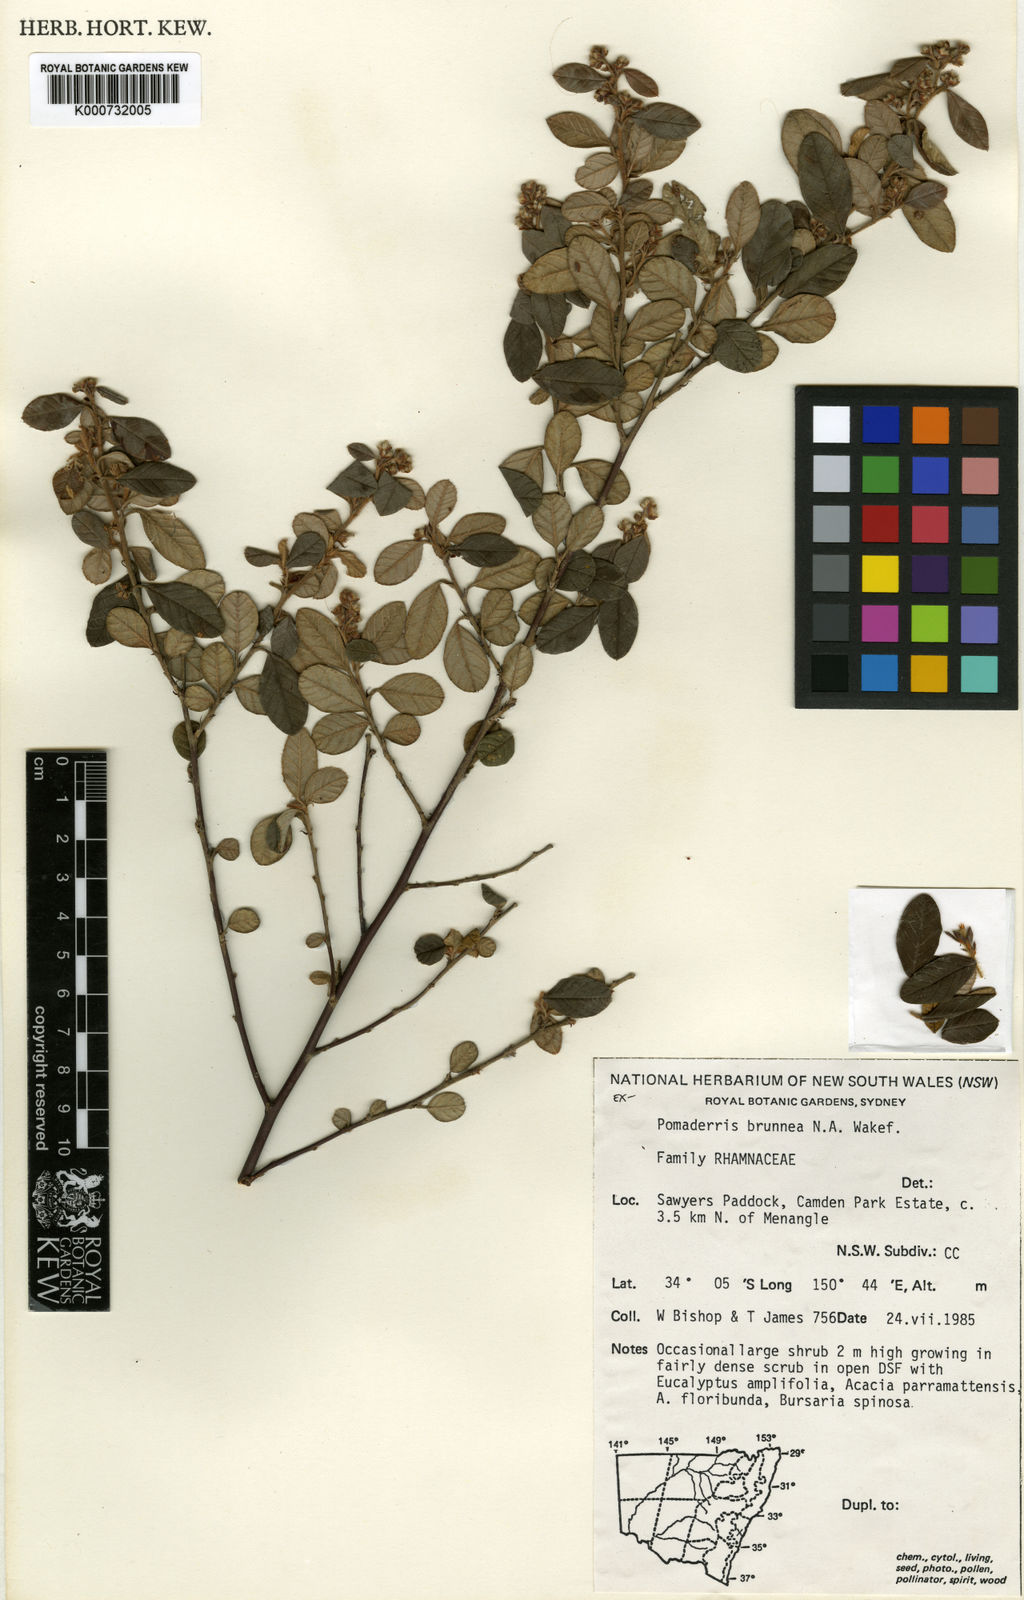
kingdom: Plantae
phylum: Tracheophyta
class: Magnoliopsida
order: Rosales
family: Rhamnaceae
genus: Pomaderris
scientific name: Pomaderris brunnea
